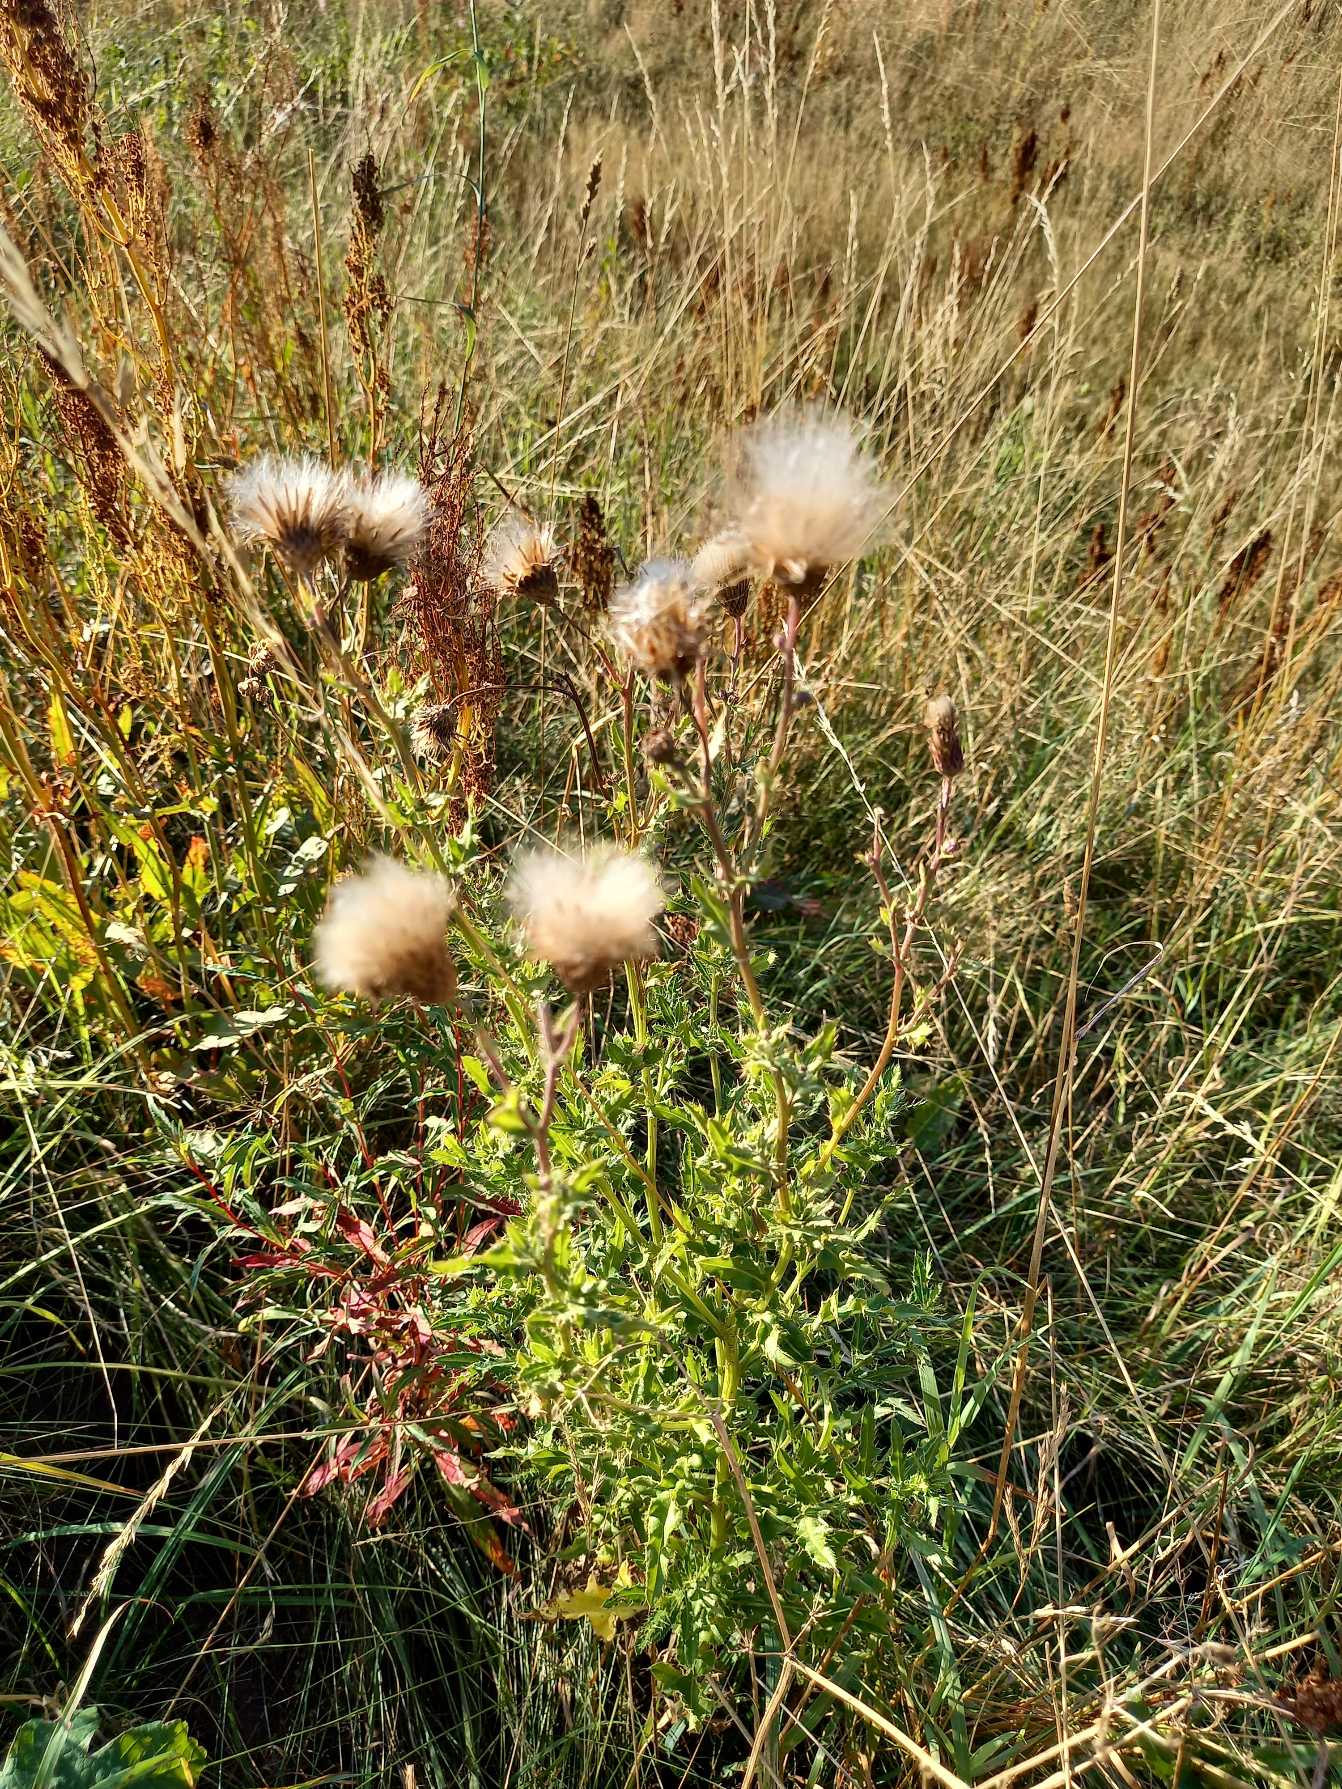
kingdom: Plantae
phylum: Tracheophyta
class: Magnoliopsida
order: Asterales
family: Asteraceae
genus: Cirsium
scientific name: Cirsium arvense
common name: Ager-tidsel
